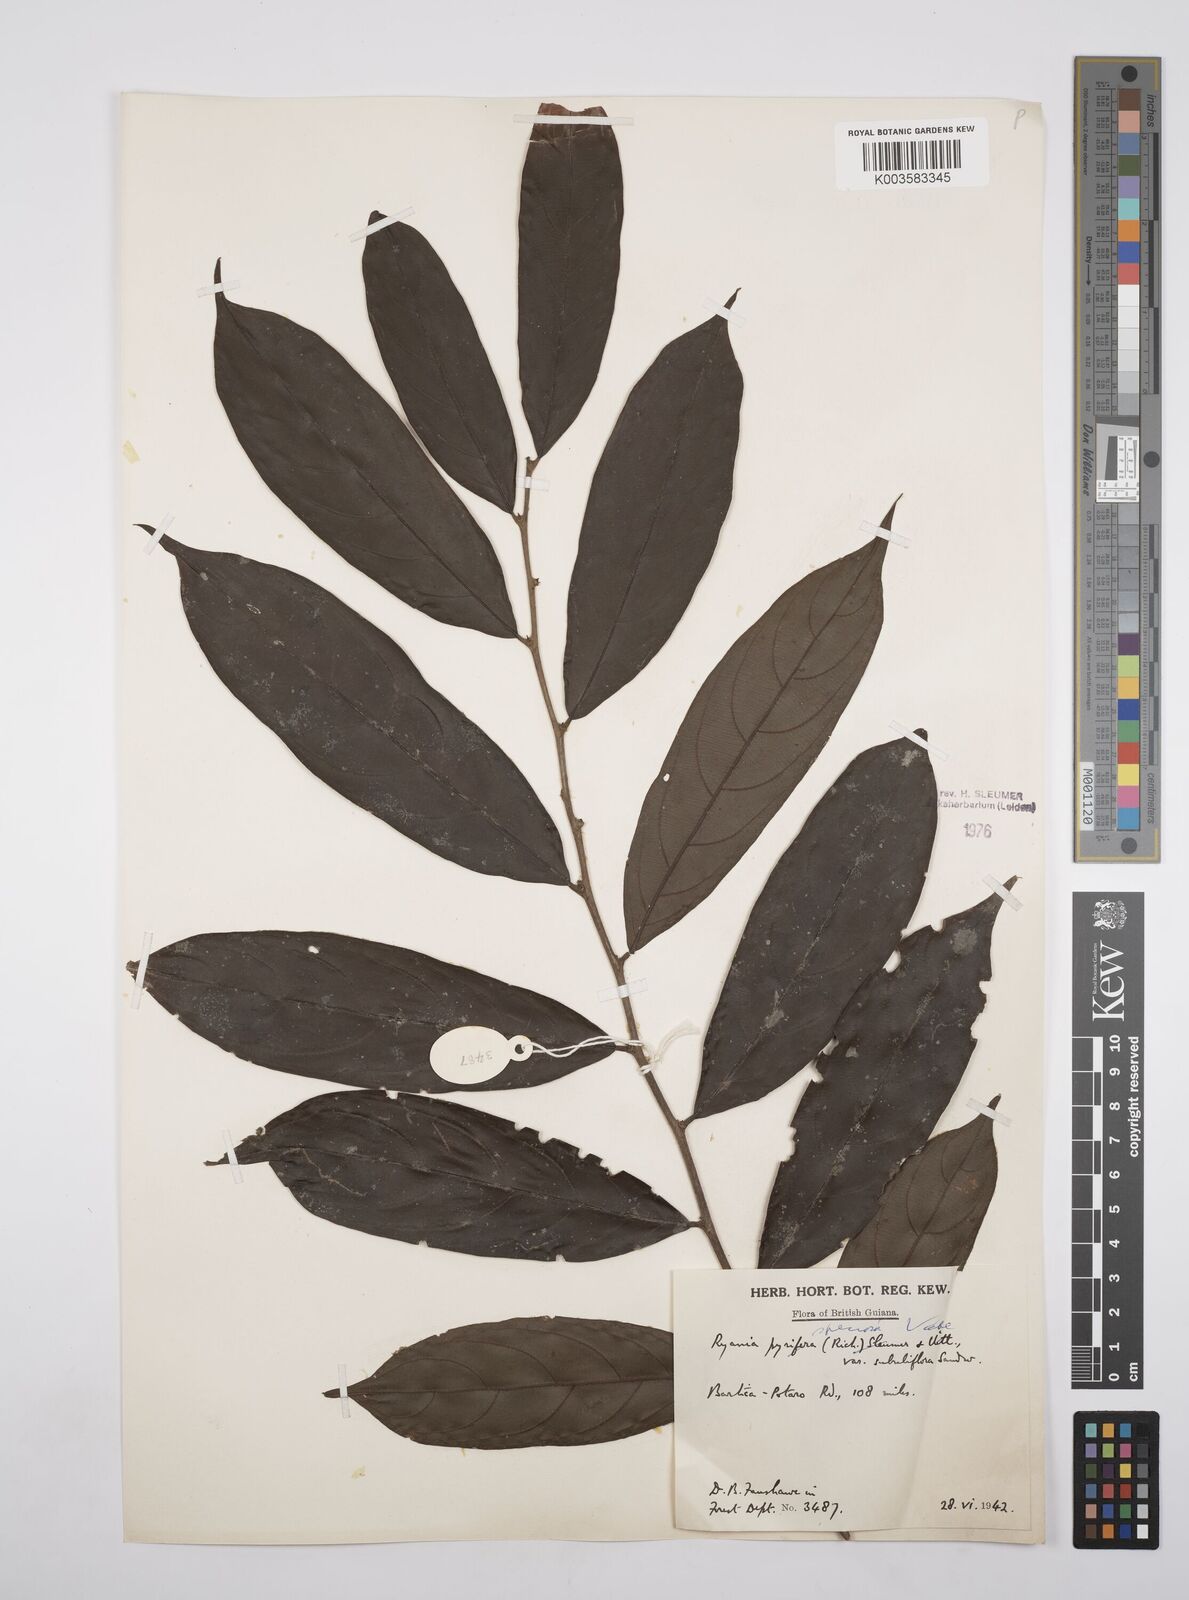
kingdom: Plantae
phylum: Tracheophyta
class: Magnoliopsida
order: Malpighiales
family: Salicaceae
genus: Ryania
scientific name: Ryania speciosa
